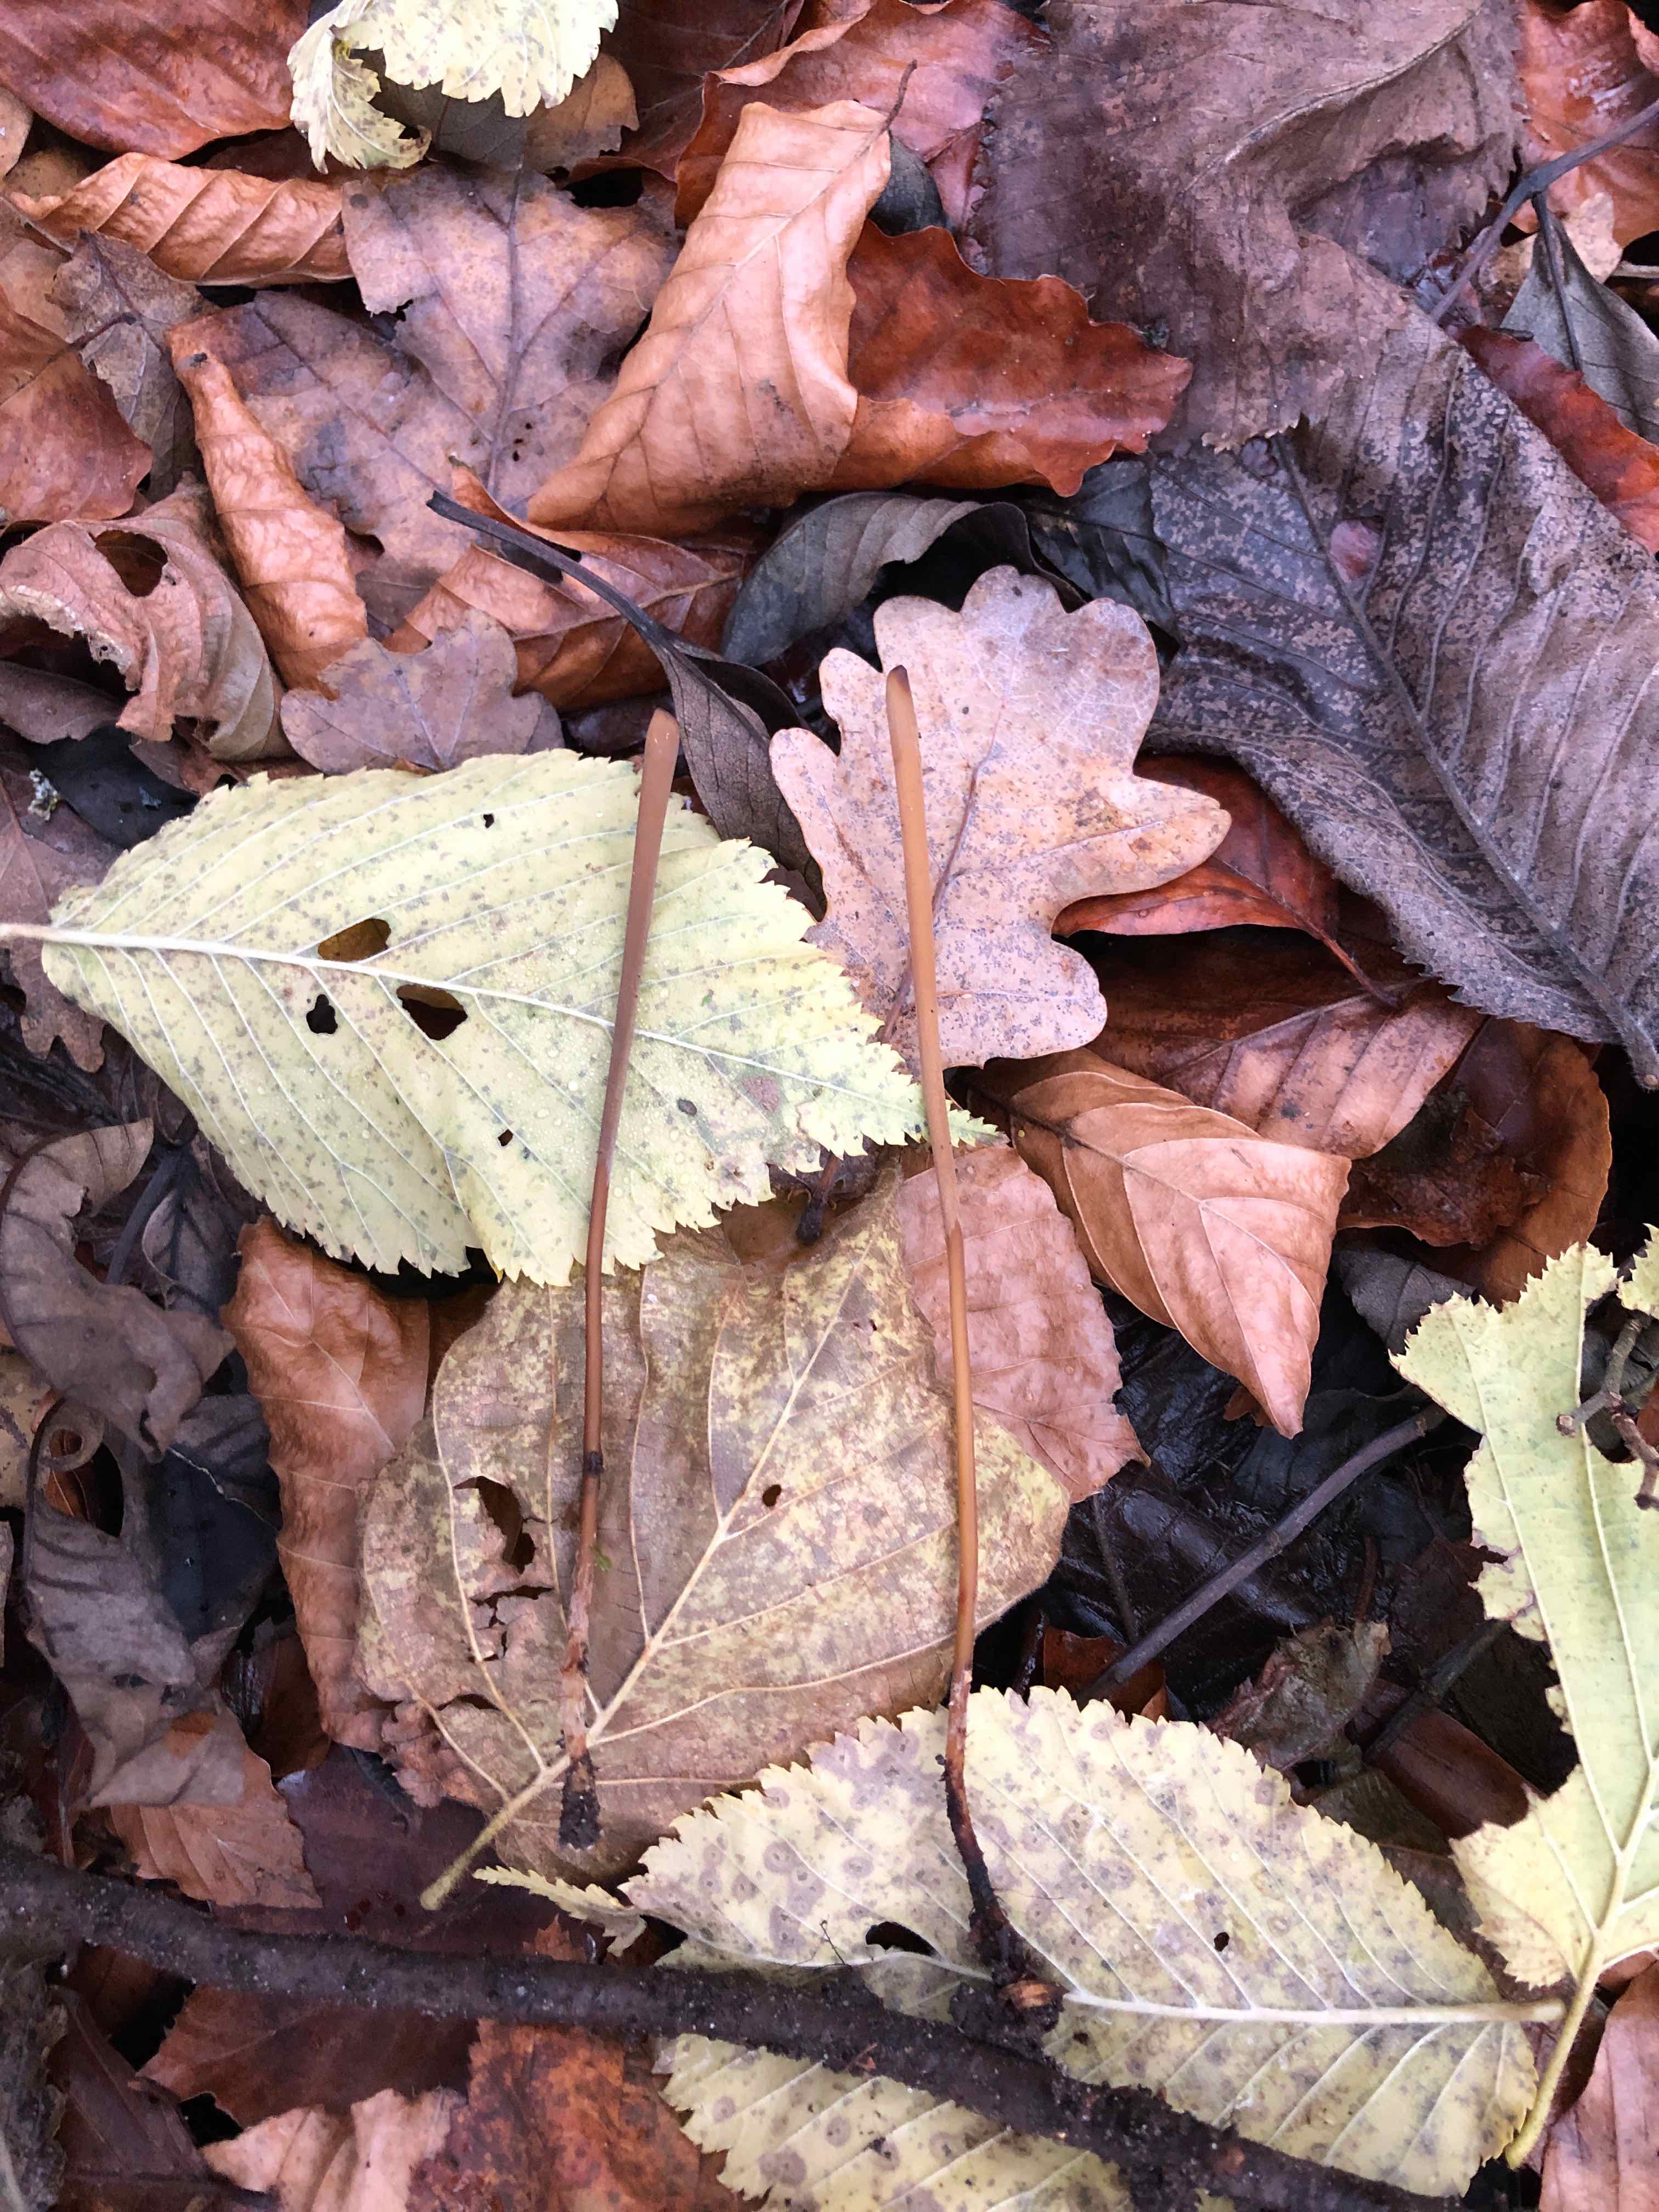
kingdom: Fungi
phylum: Basidiomycota
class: Agaricomycetes
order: Agaricales
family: Typhulaceae
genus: Typhula
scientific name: Typhula fistulosa
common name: pibet rørkølle
